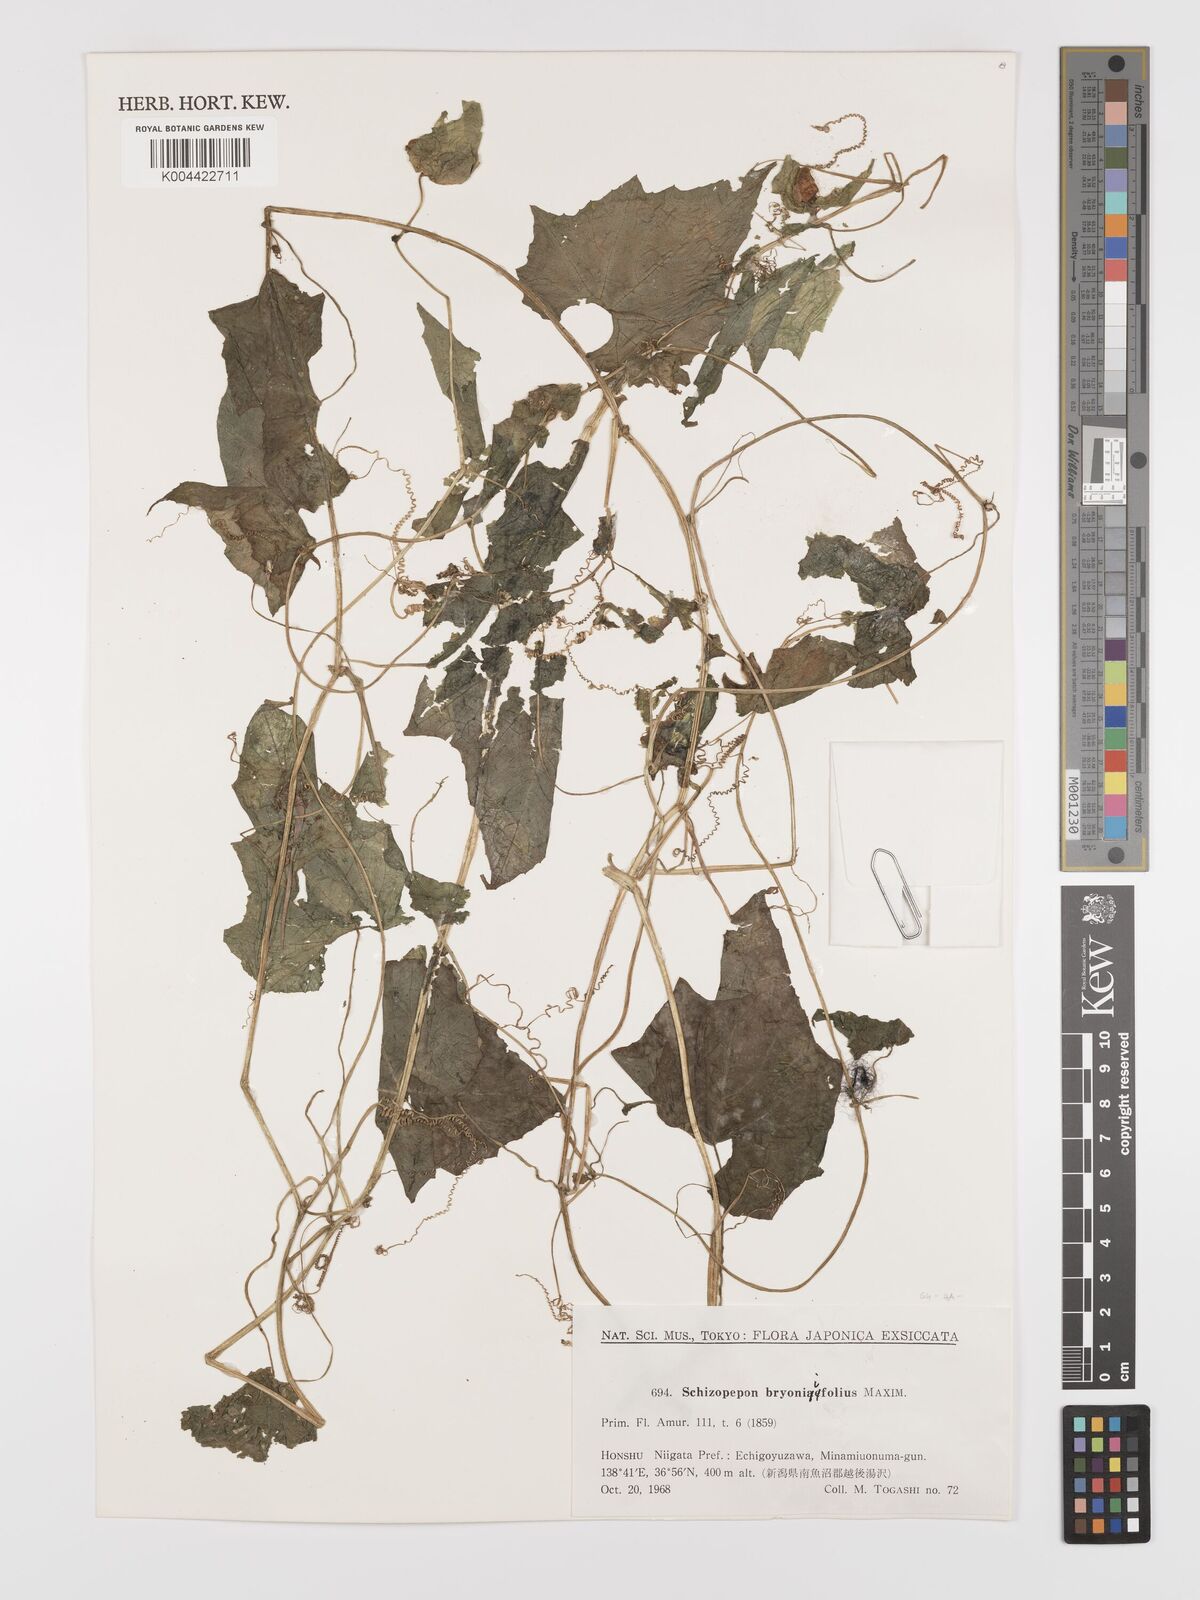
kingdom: Plantae
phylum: Tracheophyta
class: Magnoliopsida
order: Cucurbitales
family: Cucurbitaceae
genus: Schizopepon
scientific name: Schizopepon bryoniifolius
